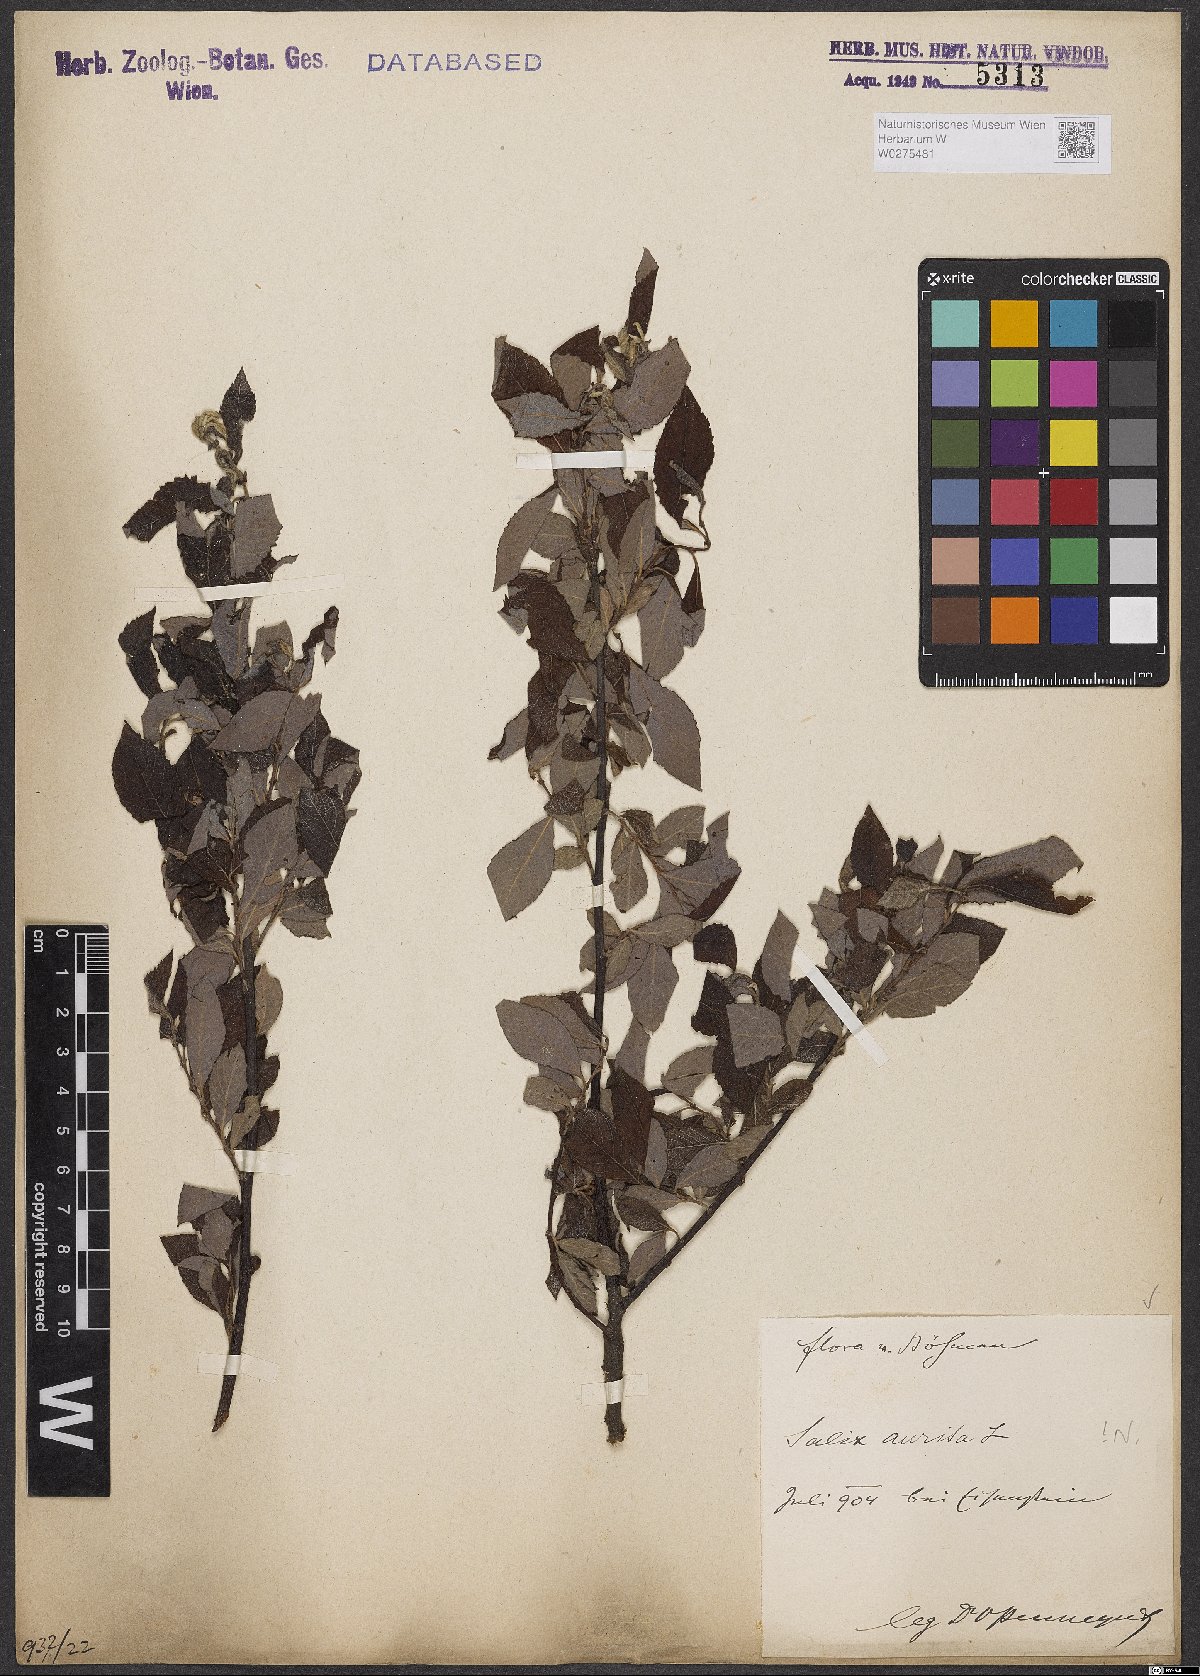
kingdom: Plantae
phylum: Tracheophyta
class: Magnoliopsida
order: Malpighiales
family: Salicaceae
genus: Salix
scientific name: Salix aurita
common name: Eared willow
